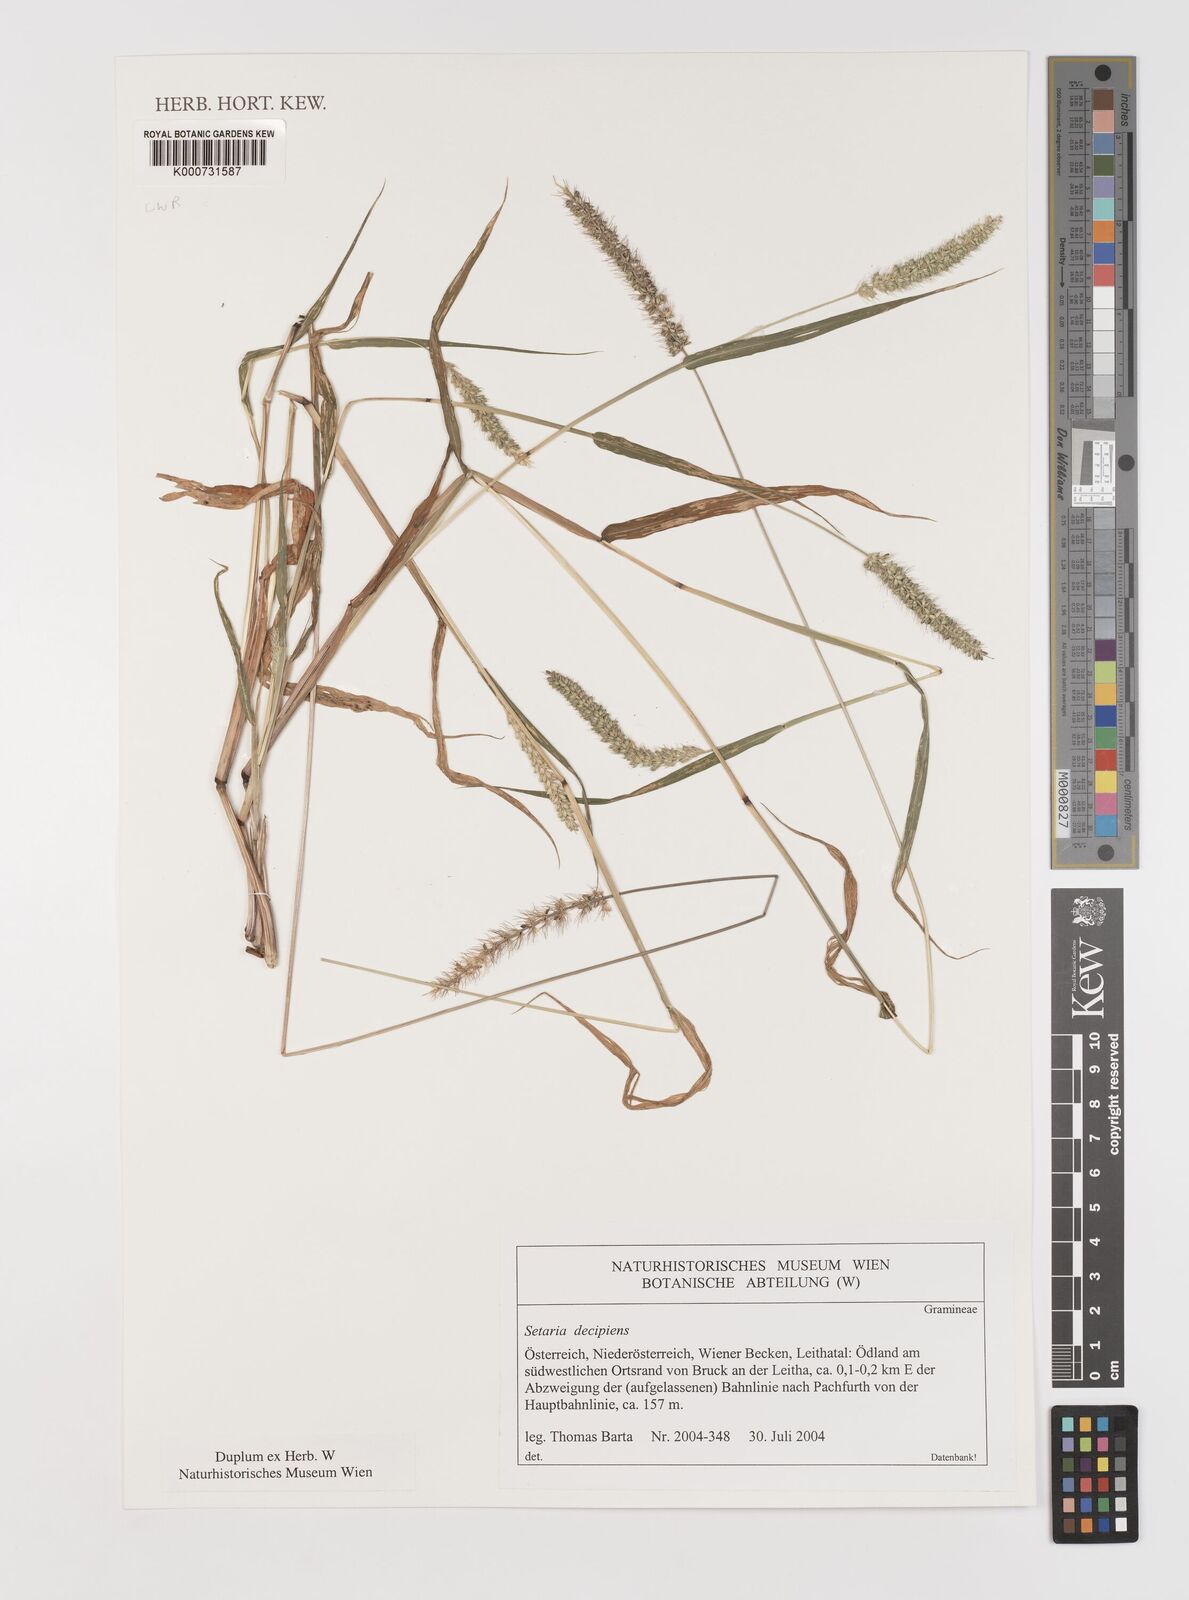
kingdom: Plantae
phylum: Tracheophyta
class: Liliopsida
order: Poales
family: Poaceae
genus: Setaria
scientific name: Setaria sphacelata
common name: African bristlegrass
